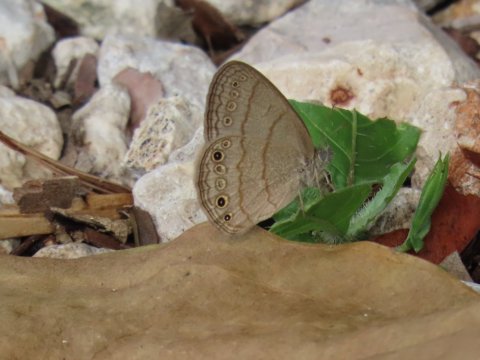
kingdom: Animalia
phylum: Arthropoda
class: Insecta
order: Lepidoptera
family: Nymphalidae
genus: Hermeuptychia
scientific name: Hermeuptychia hermes
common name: Carolina Satyr
